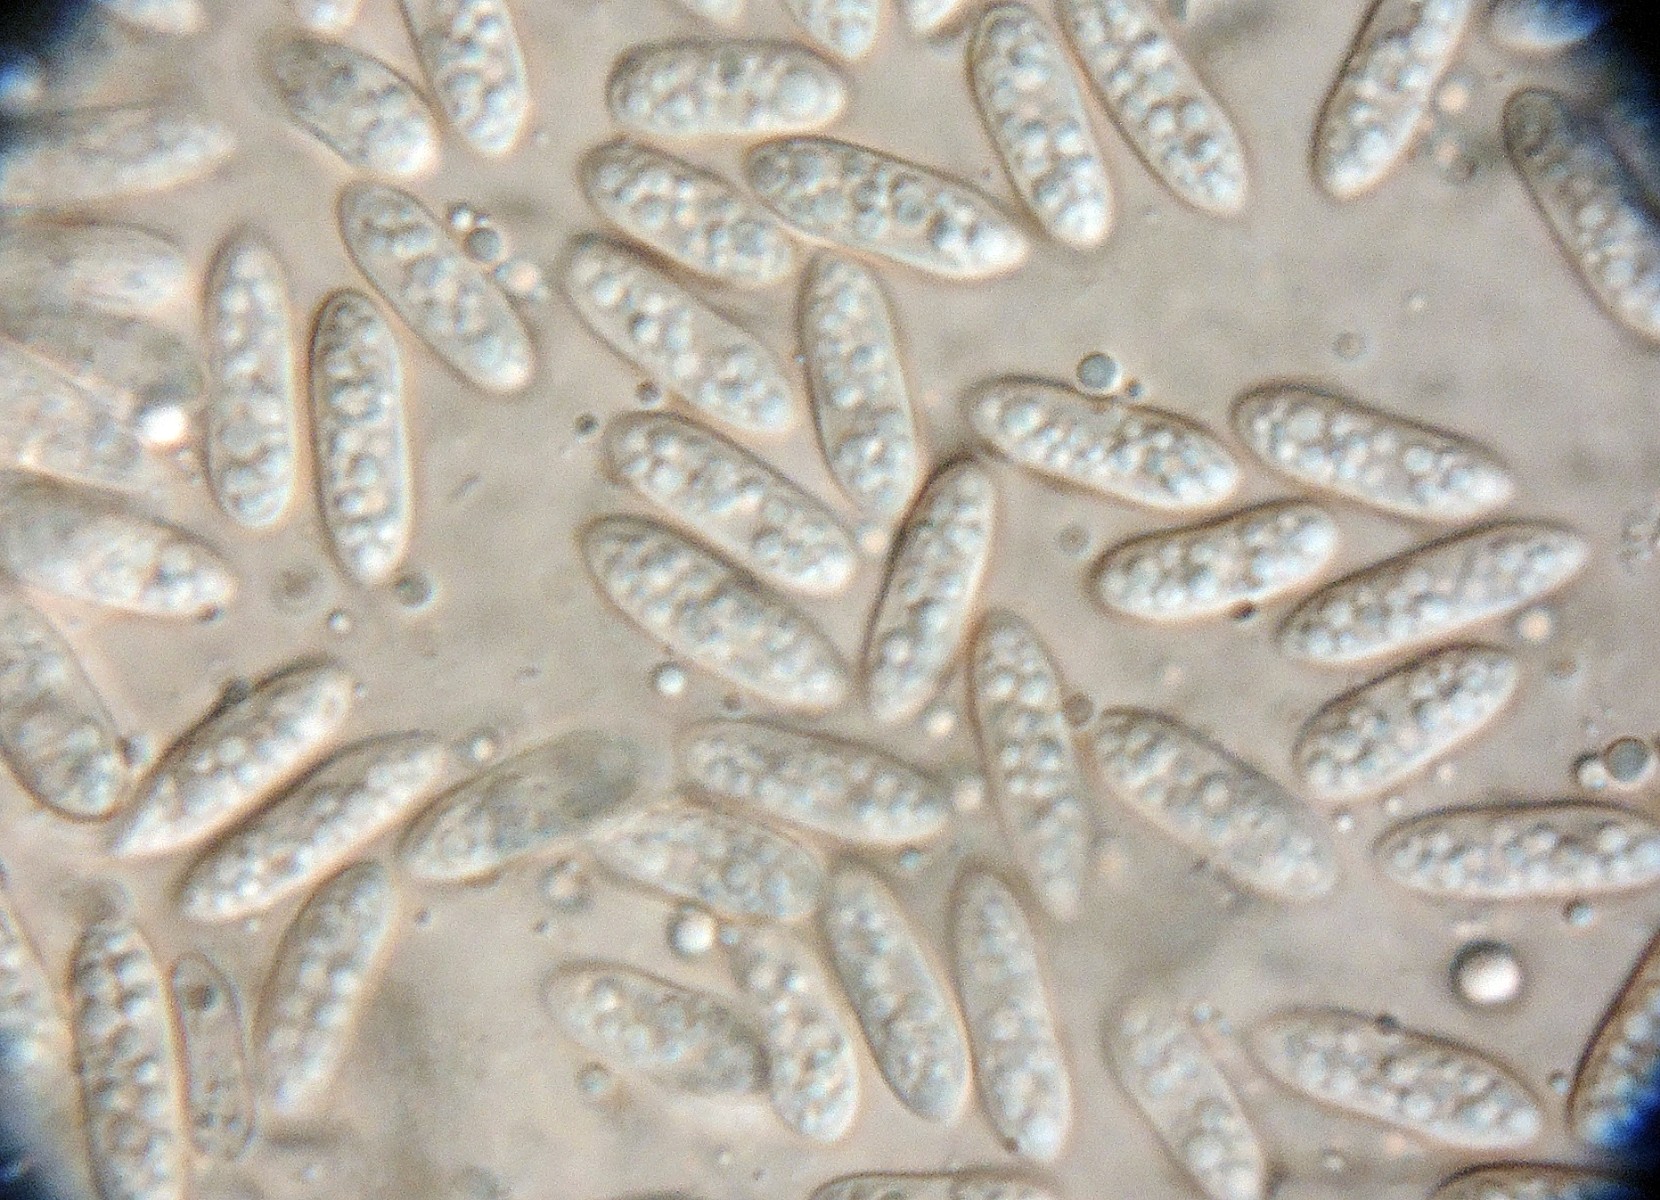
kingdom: Fungi
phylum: Ascomycota
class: Dothideomycetes
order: Pleosporales
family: Didymellaceae
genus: Ascochyta
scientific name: Ascochyta equiseti
